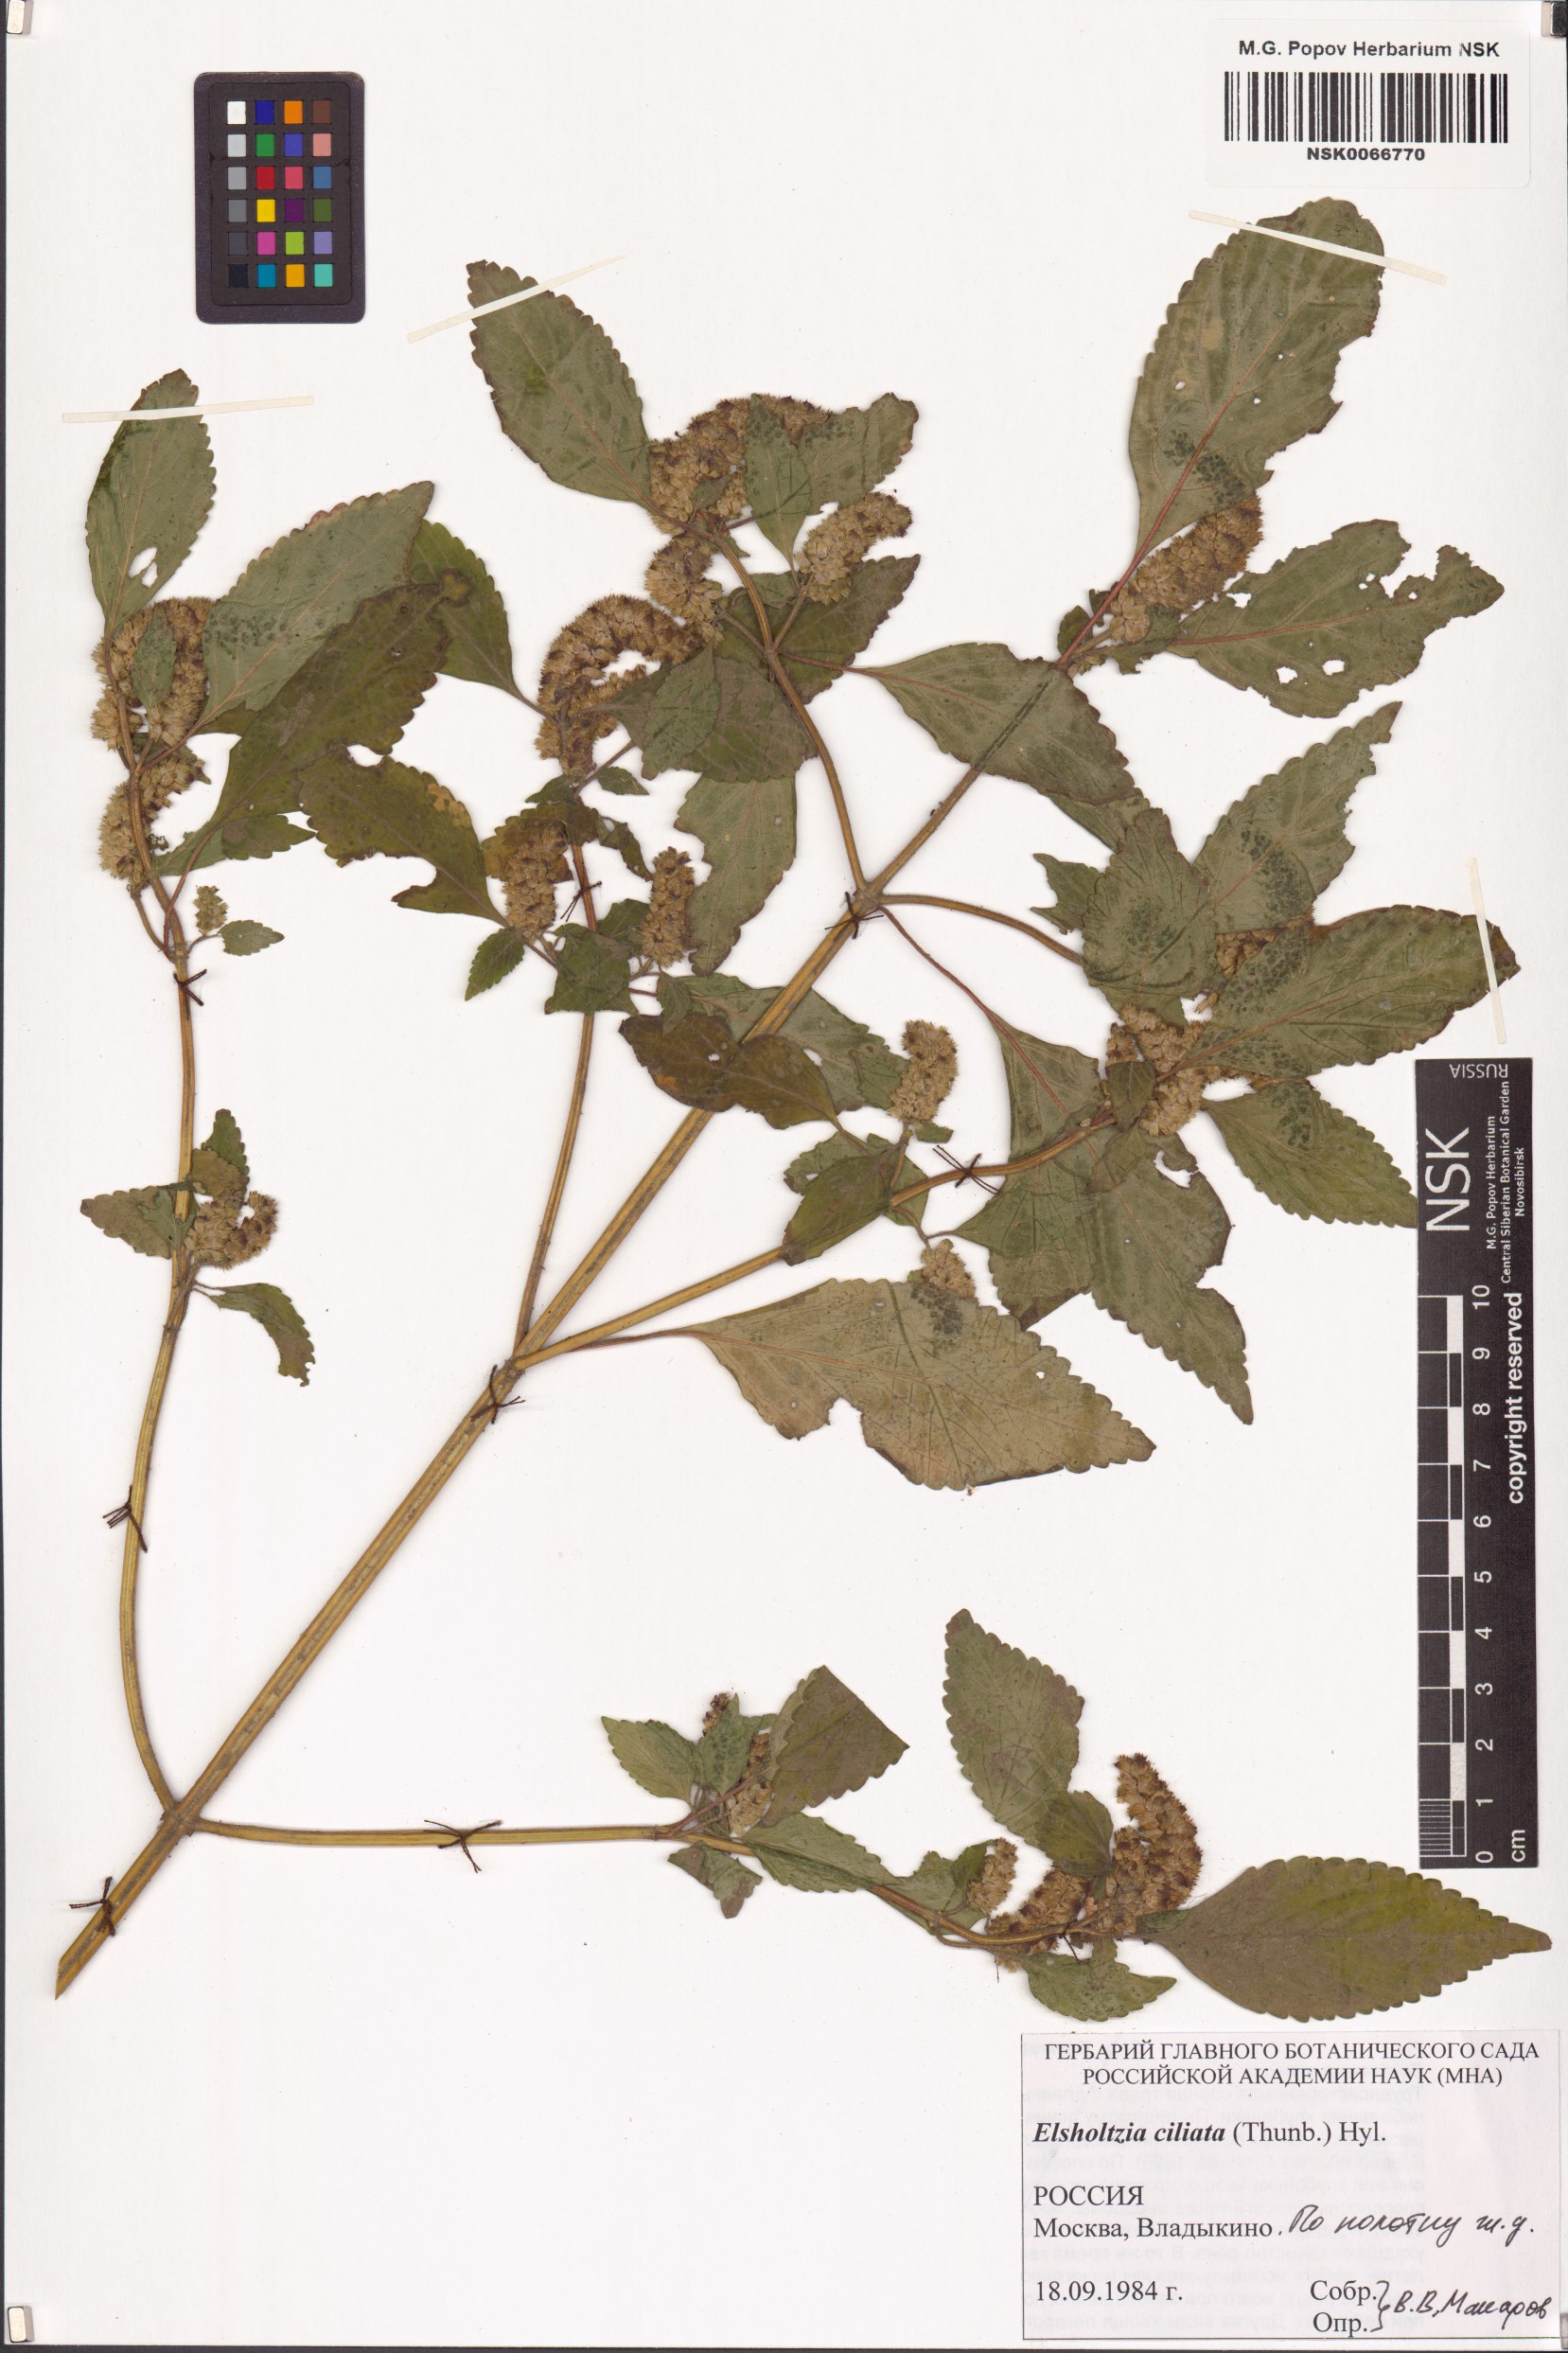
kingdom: Plantae
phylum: Tracheophyta
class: Magnoliopsida
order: Lamiales
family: Lamiaceae
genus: Elsholtzia
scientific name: Elsholtzia ciliata
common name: Ciliate elsholtzia
